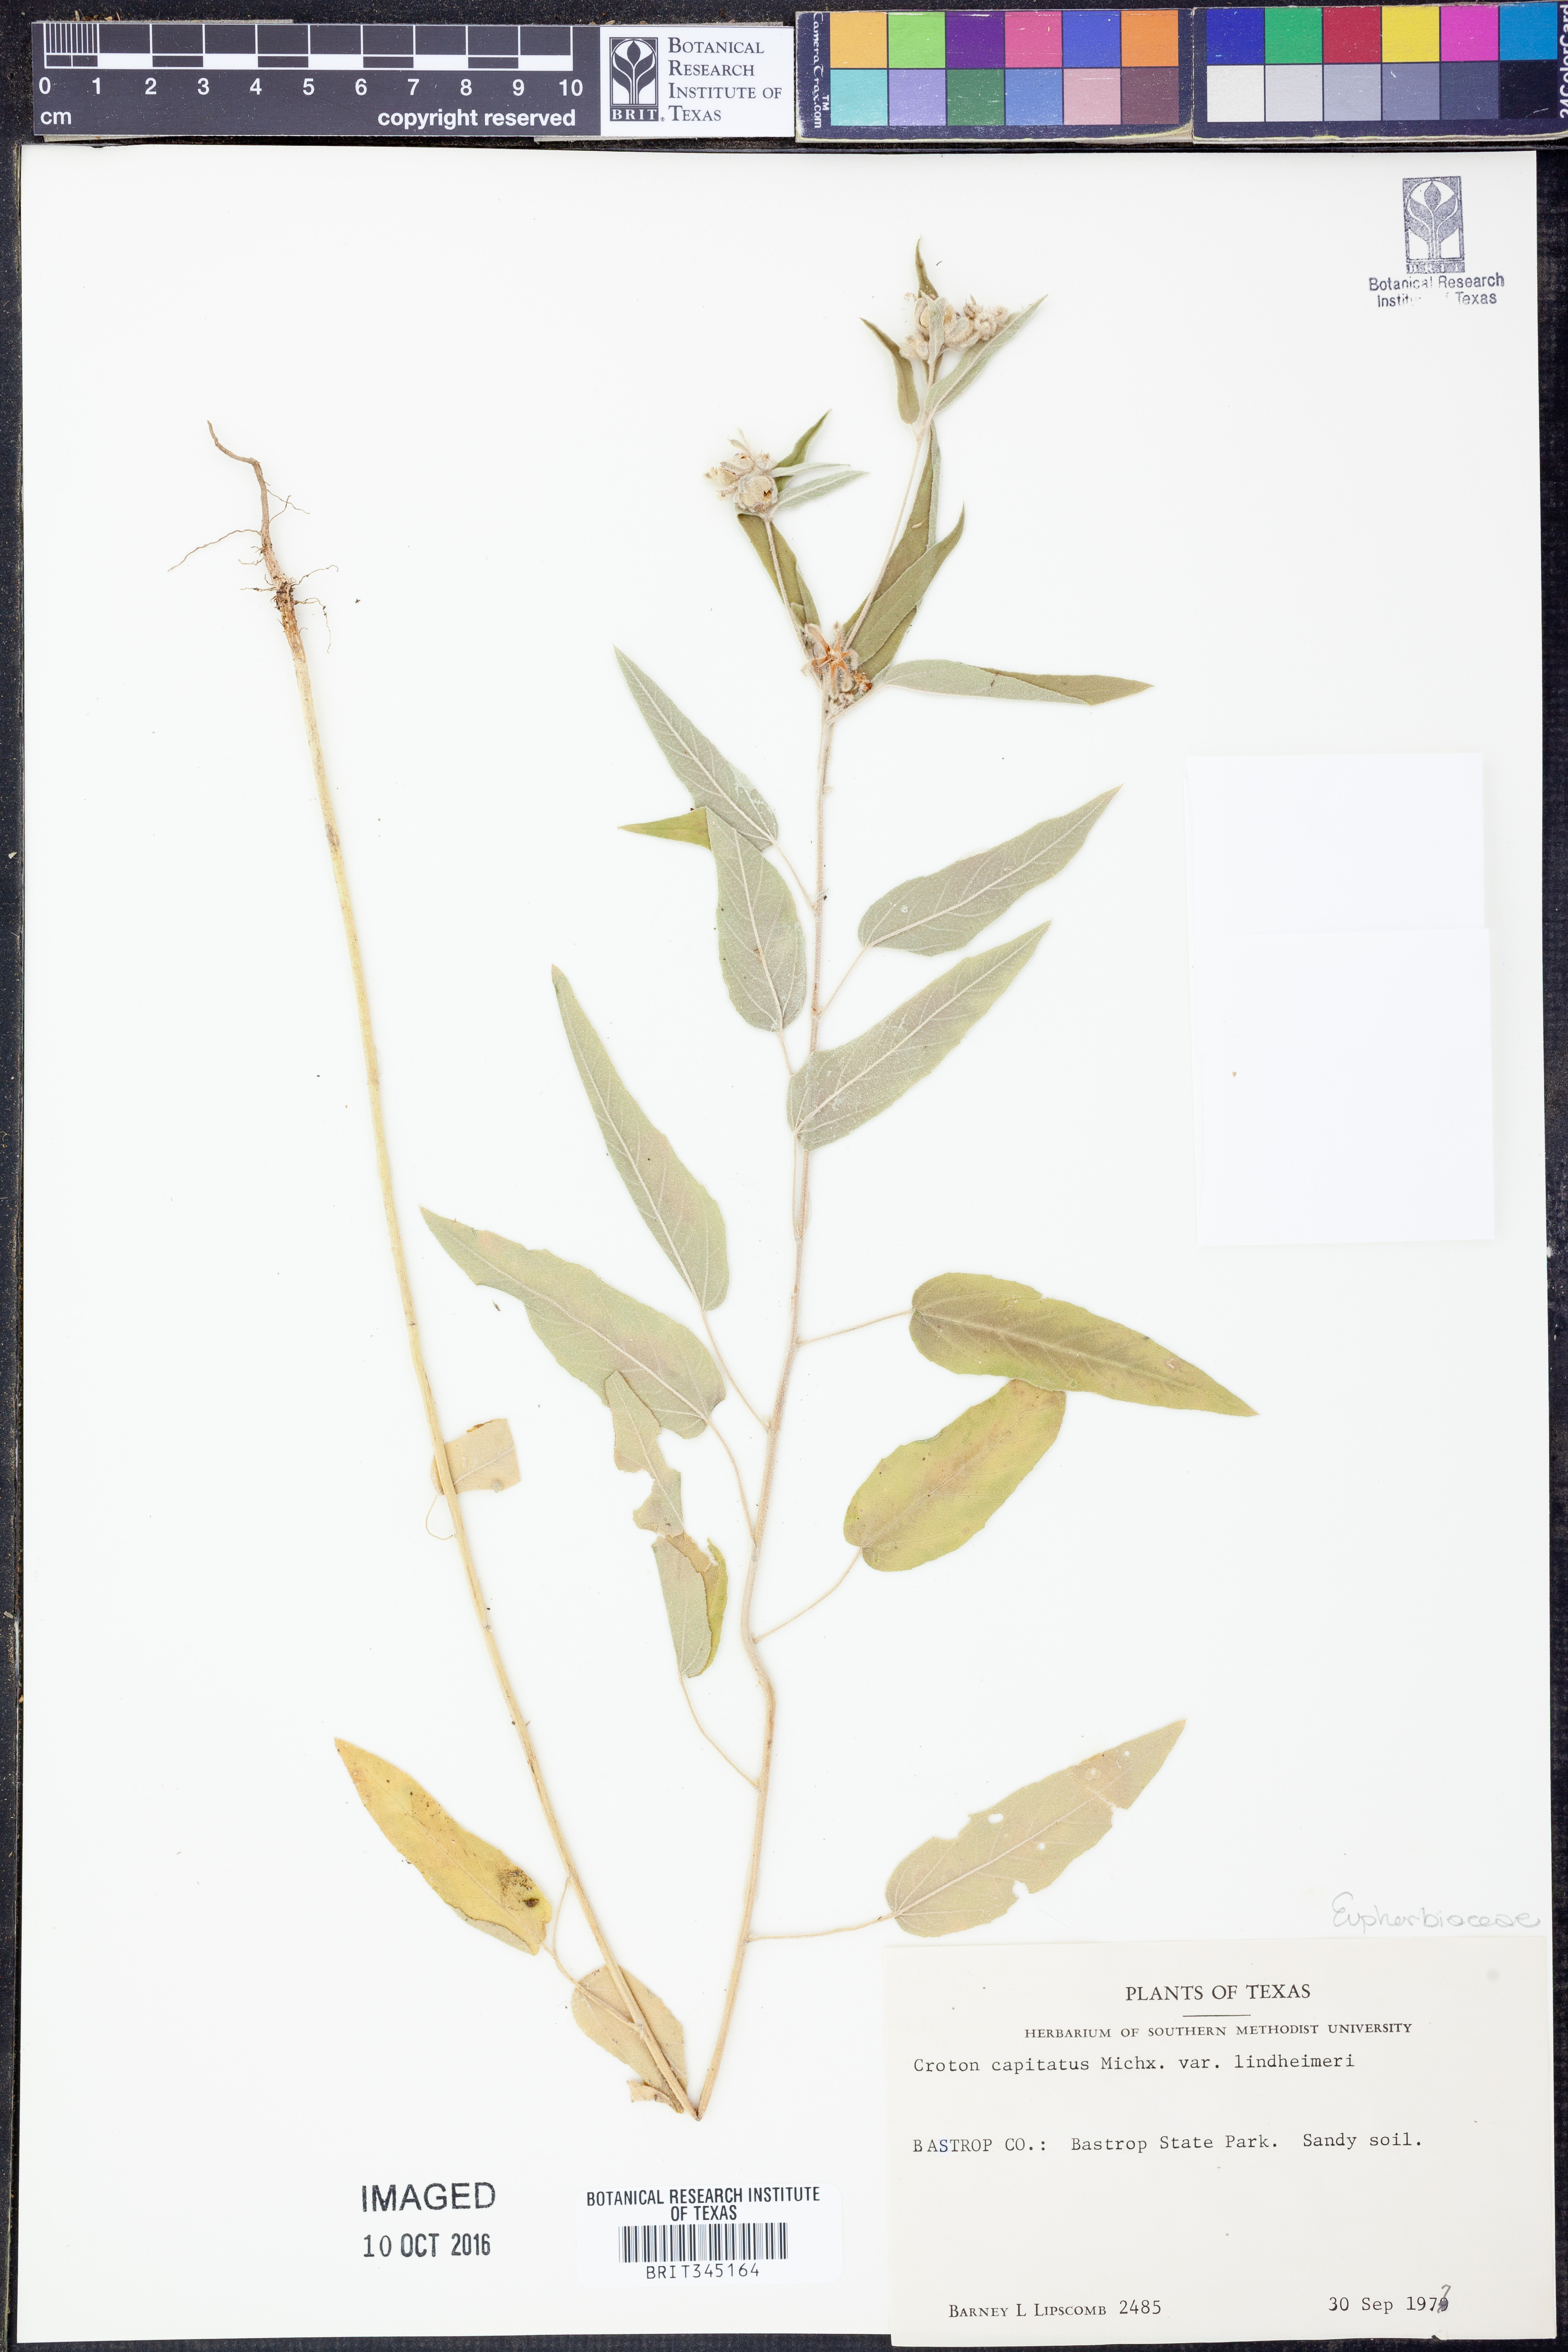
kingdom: Plantae
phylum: Tracheophyta
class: Magnoliopsida
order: Malpighiales
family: Euphorbiaceae
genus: Croton
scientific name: Croton lindheimeri
